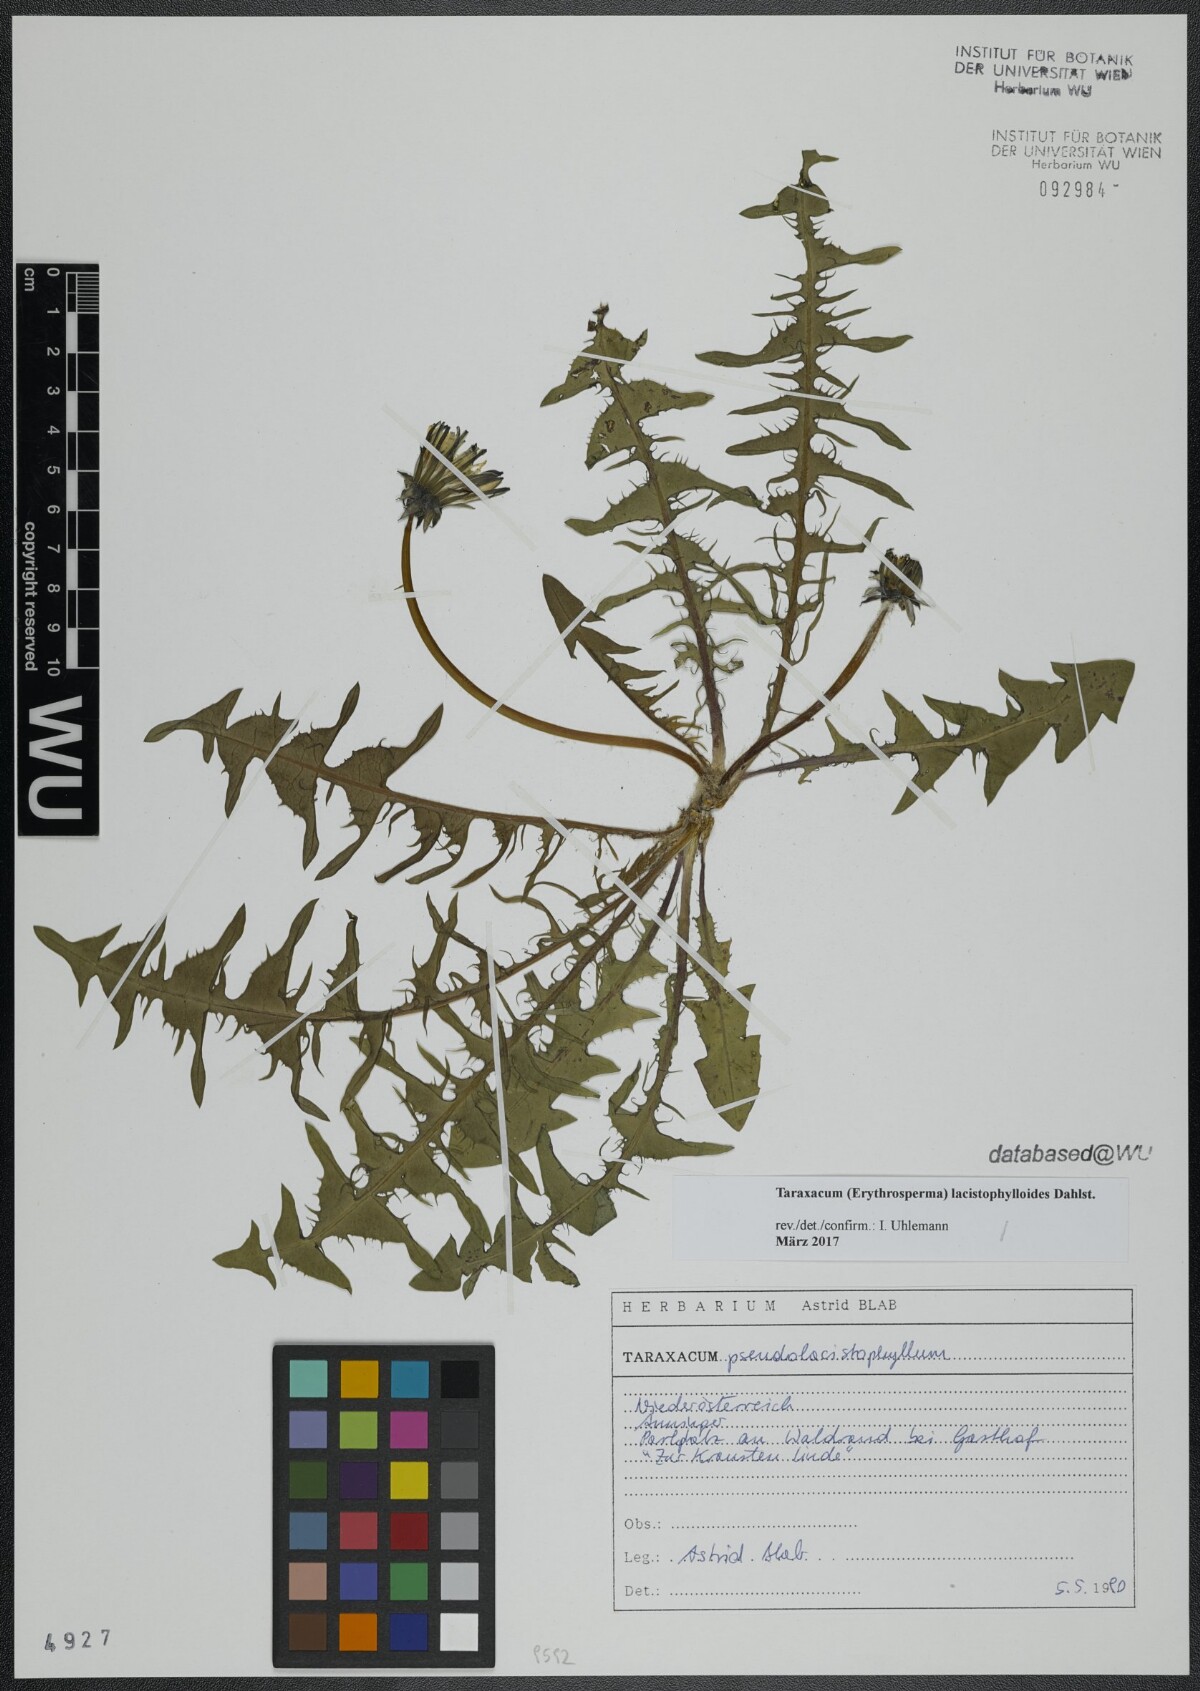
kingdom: Plantae
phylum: Tracheophyta
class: Magnoliopsida
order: Asterales
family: Asteraceae
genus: Taraxacum
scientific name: Taraxacum lacistophylloides
